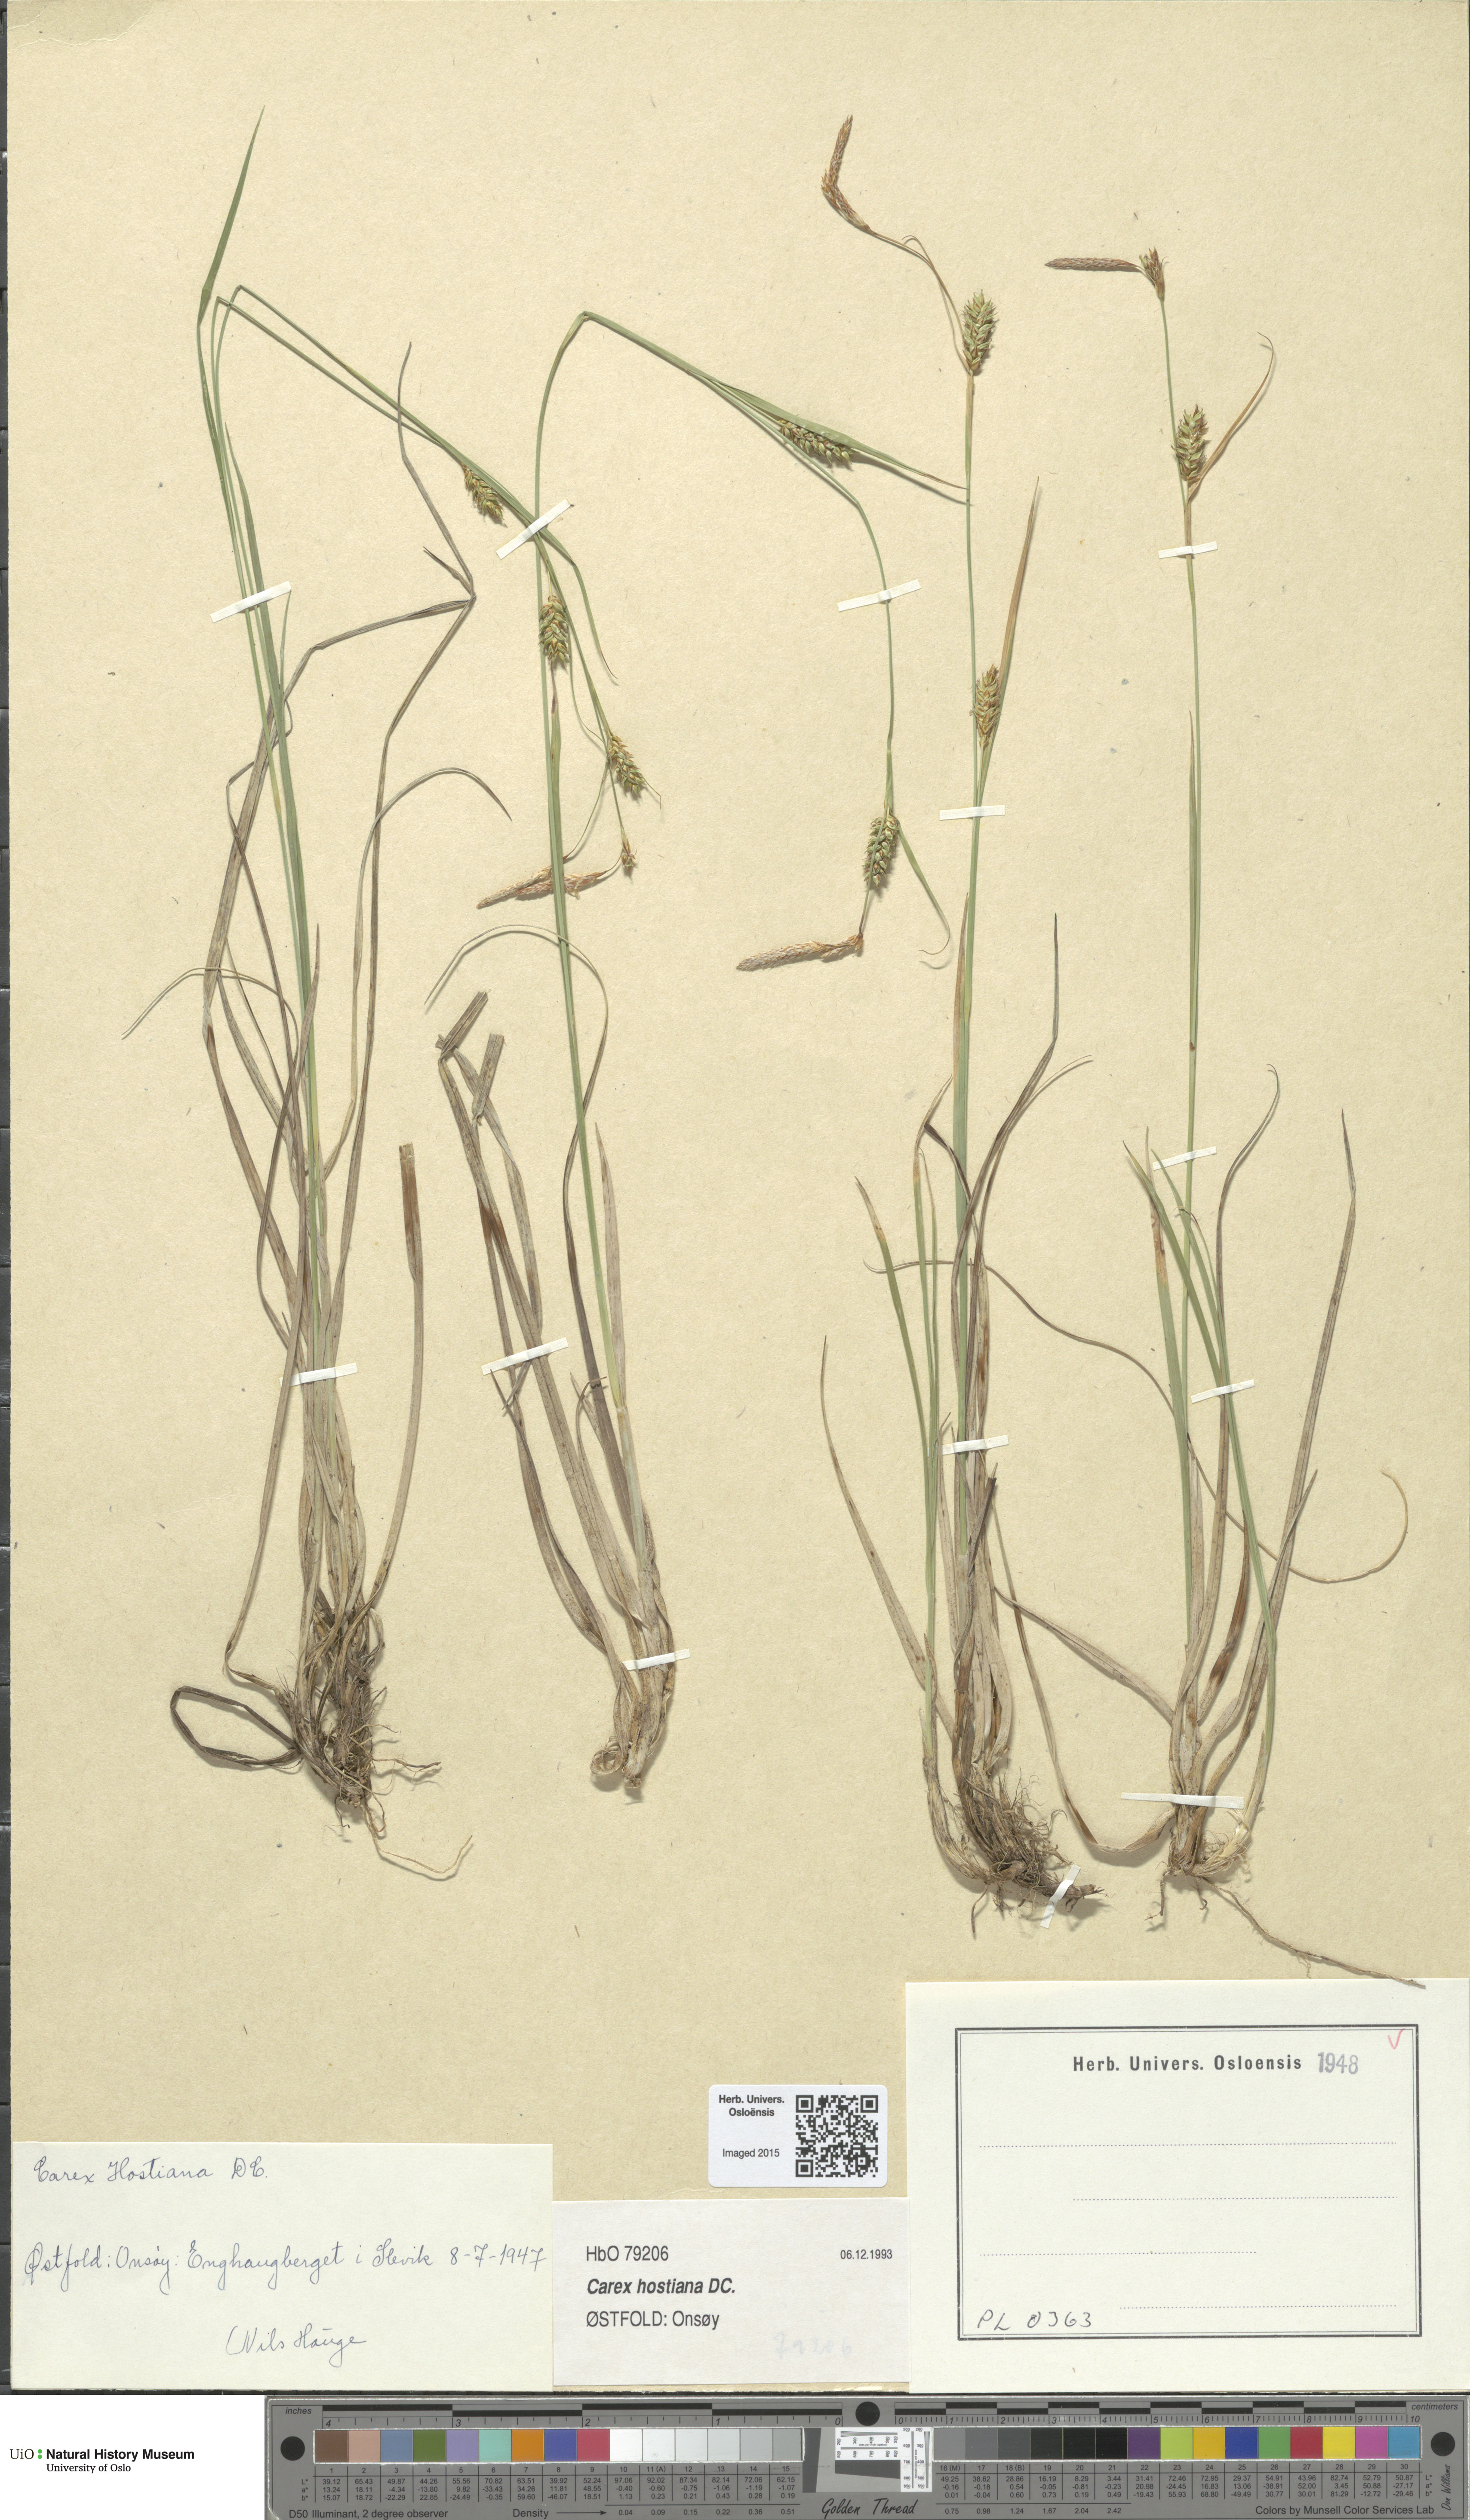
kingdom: Plantae
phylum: Tracheophyta
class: Liliopsida
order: Poales
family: Cyperaceae
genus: Carex
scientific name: Carex hostiana
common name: Tawny sedge
